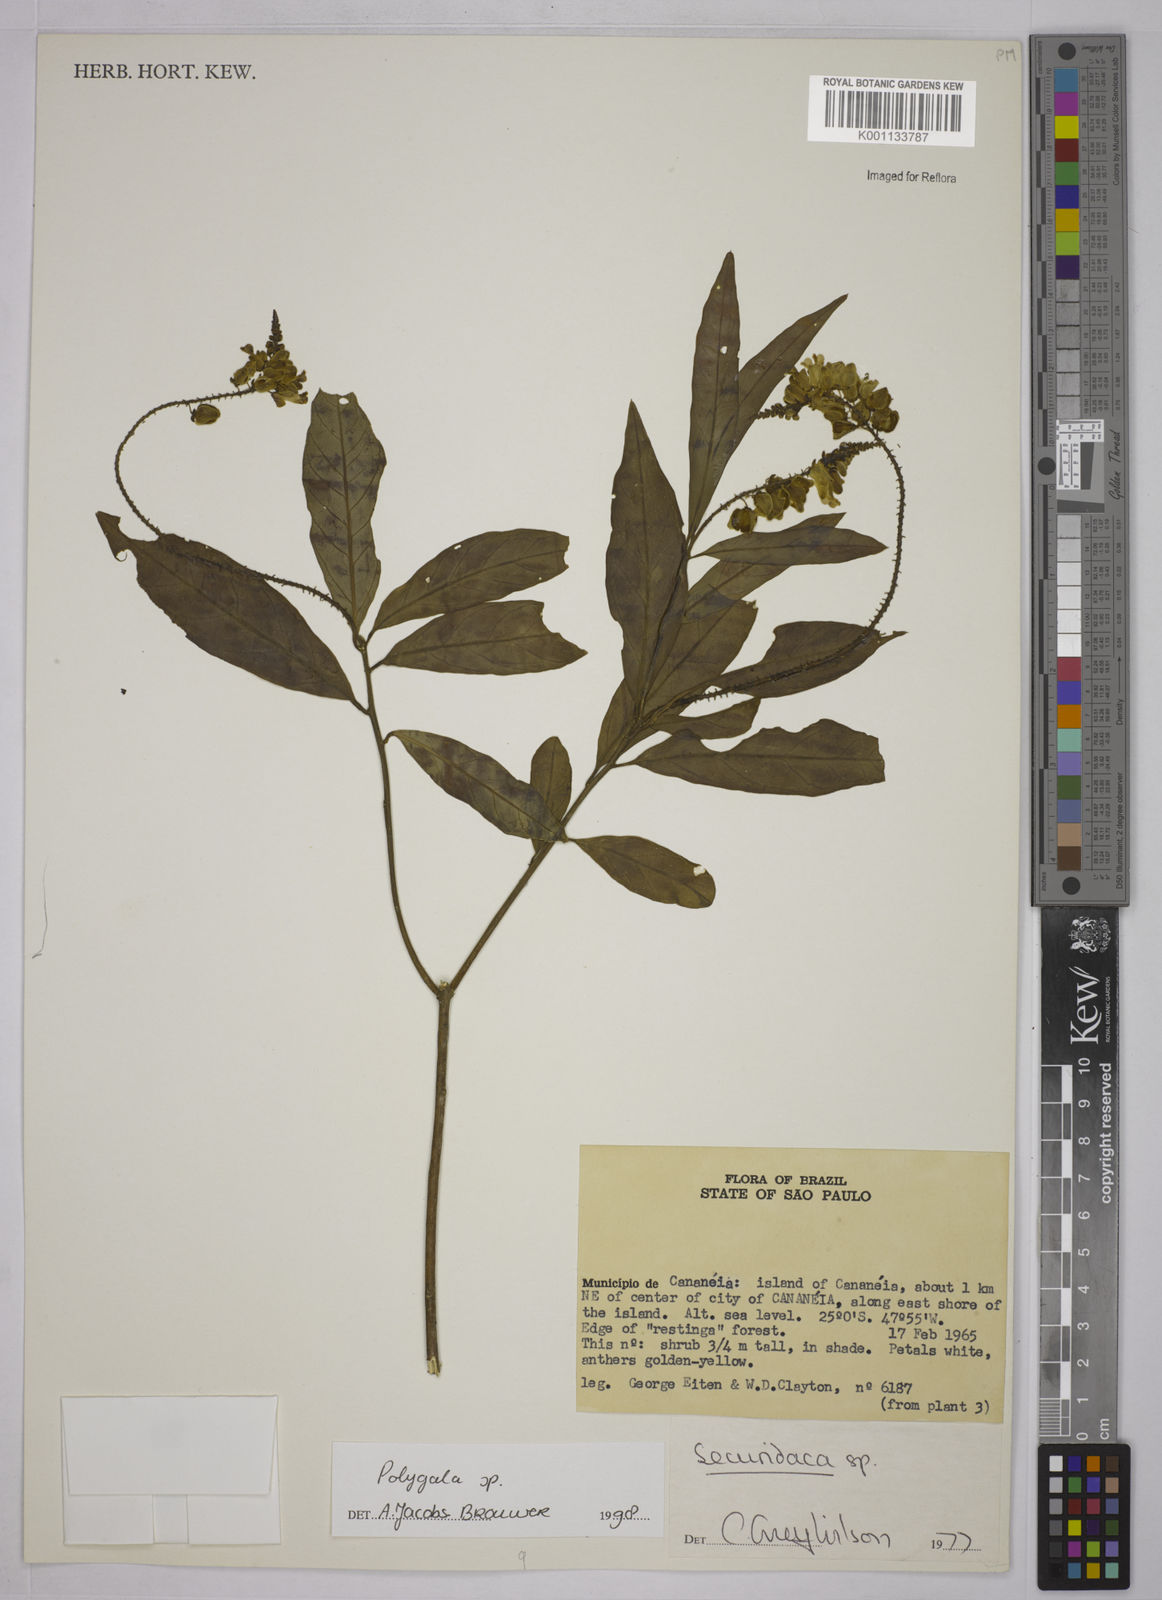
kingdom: Plantae
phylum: Tracheophyta
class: Magnoliopsida
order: Fabales
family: Polygalaceae
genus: Polygala
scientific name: Polygala
